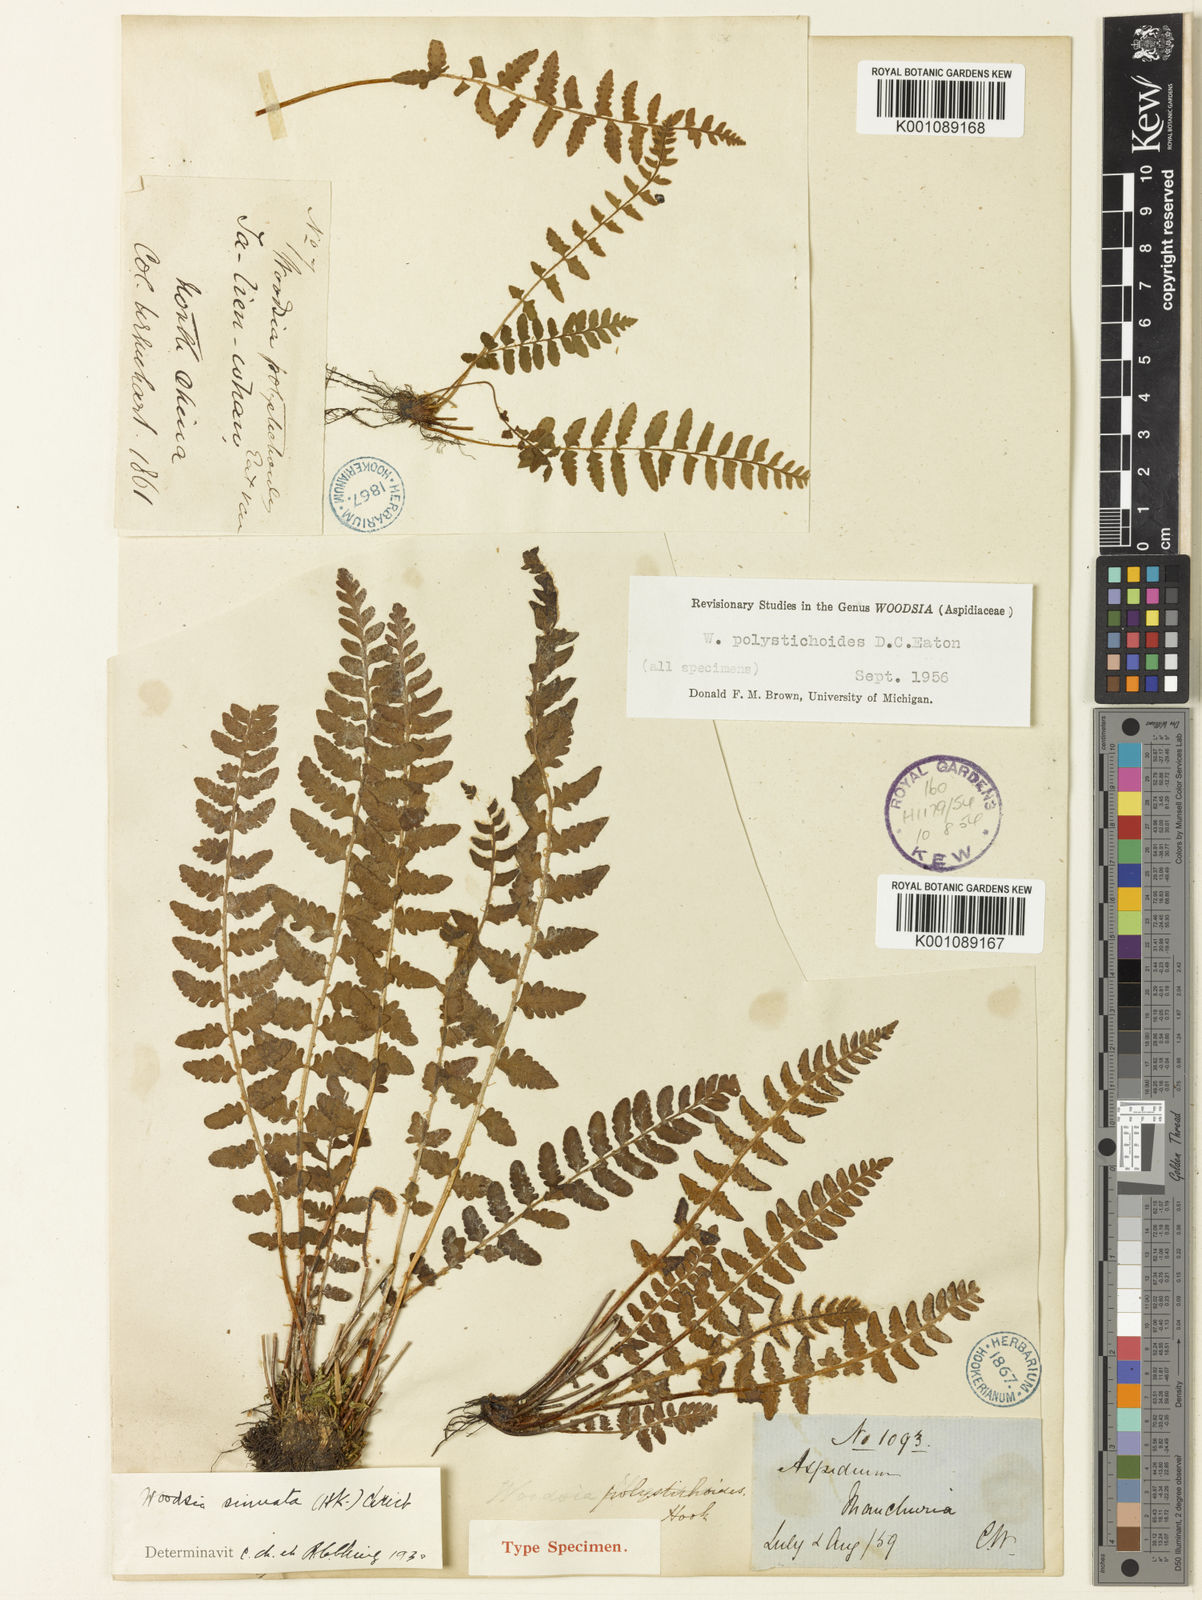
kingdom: Plantae
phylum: Tracheophyta
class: Polypodiopsida
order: Polypodiales
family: Woodsiaceae
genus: Woodsia
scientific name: Woodsia macrochlaena
